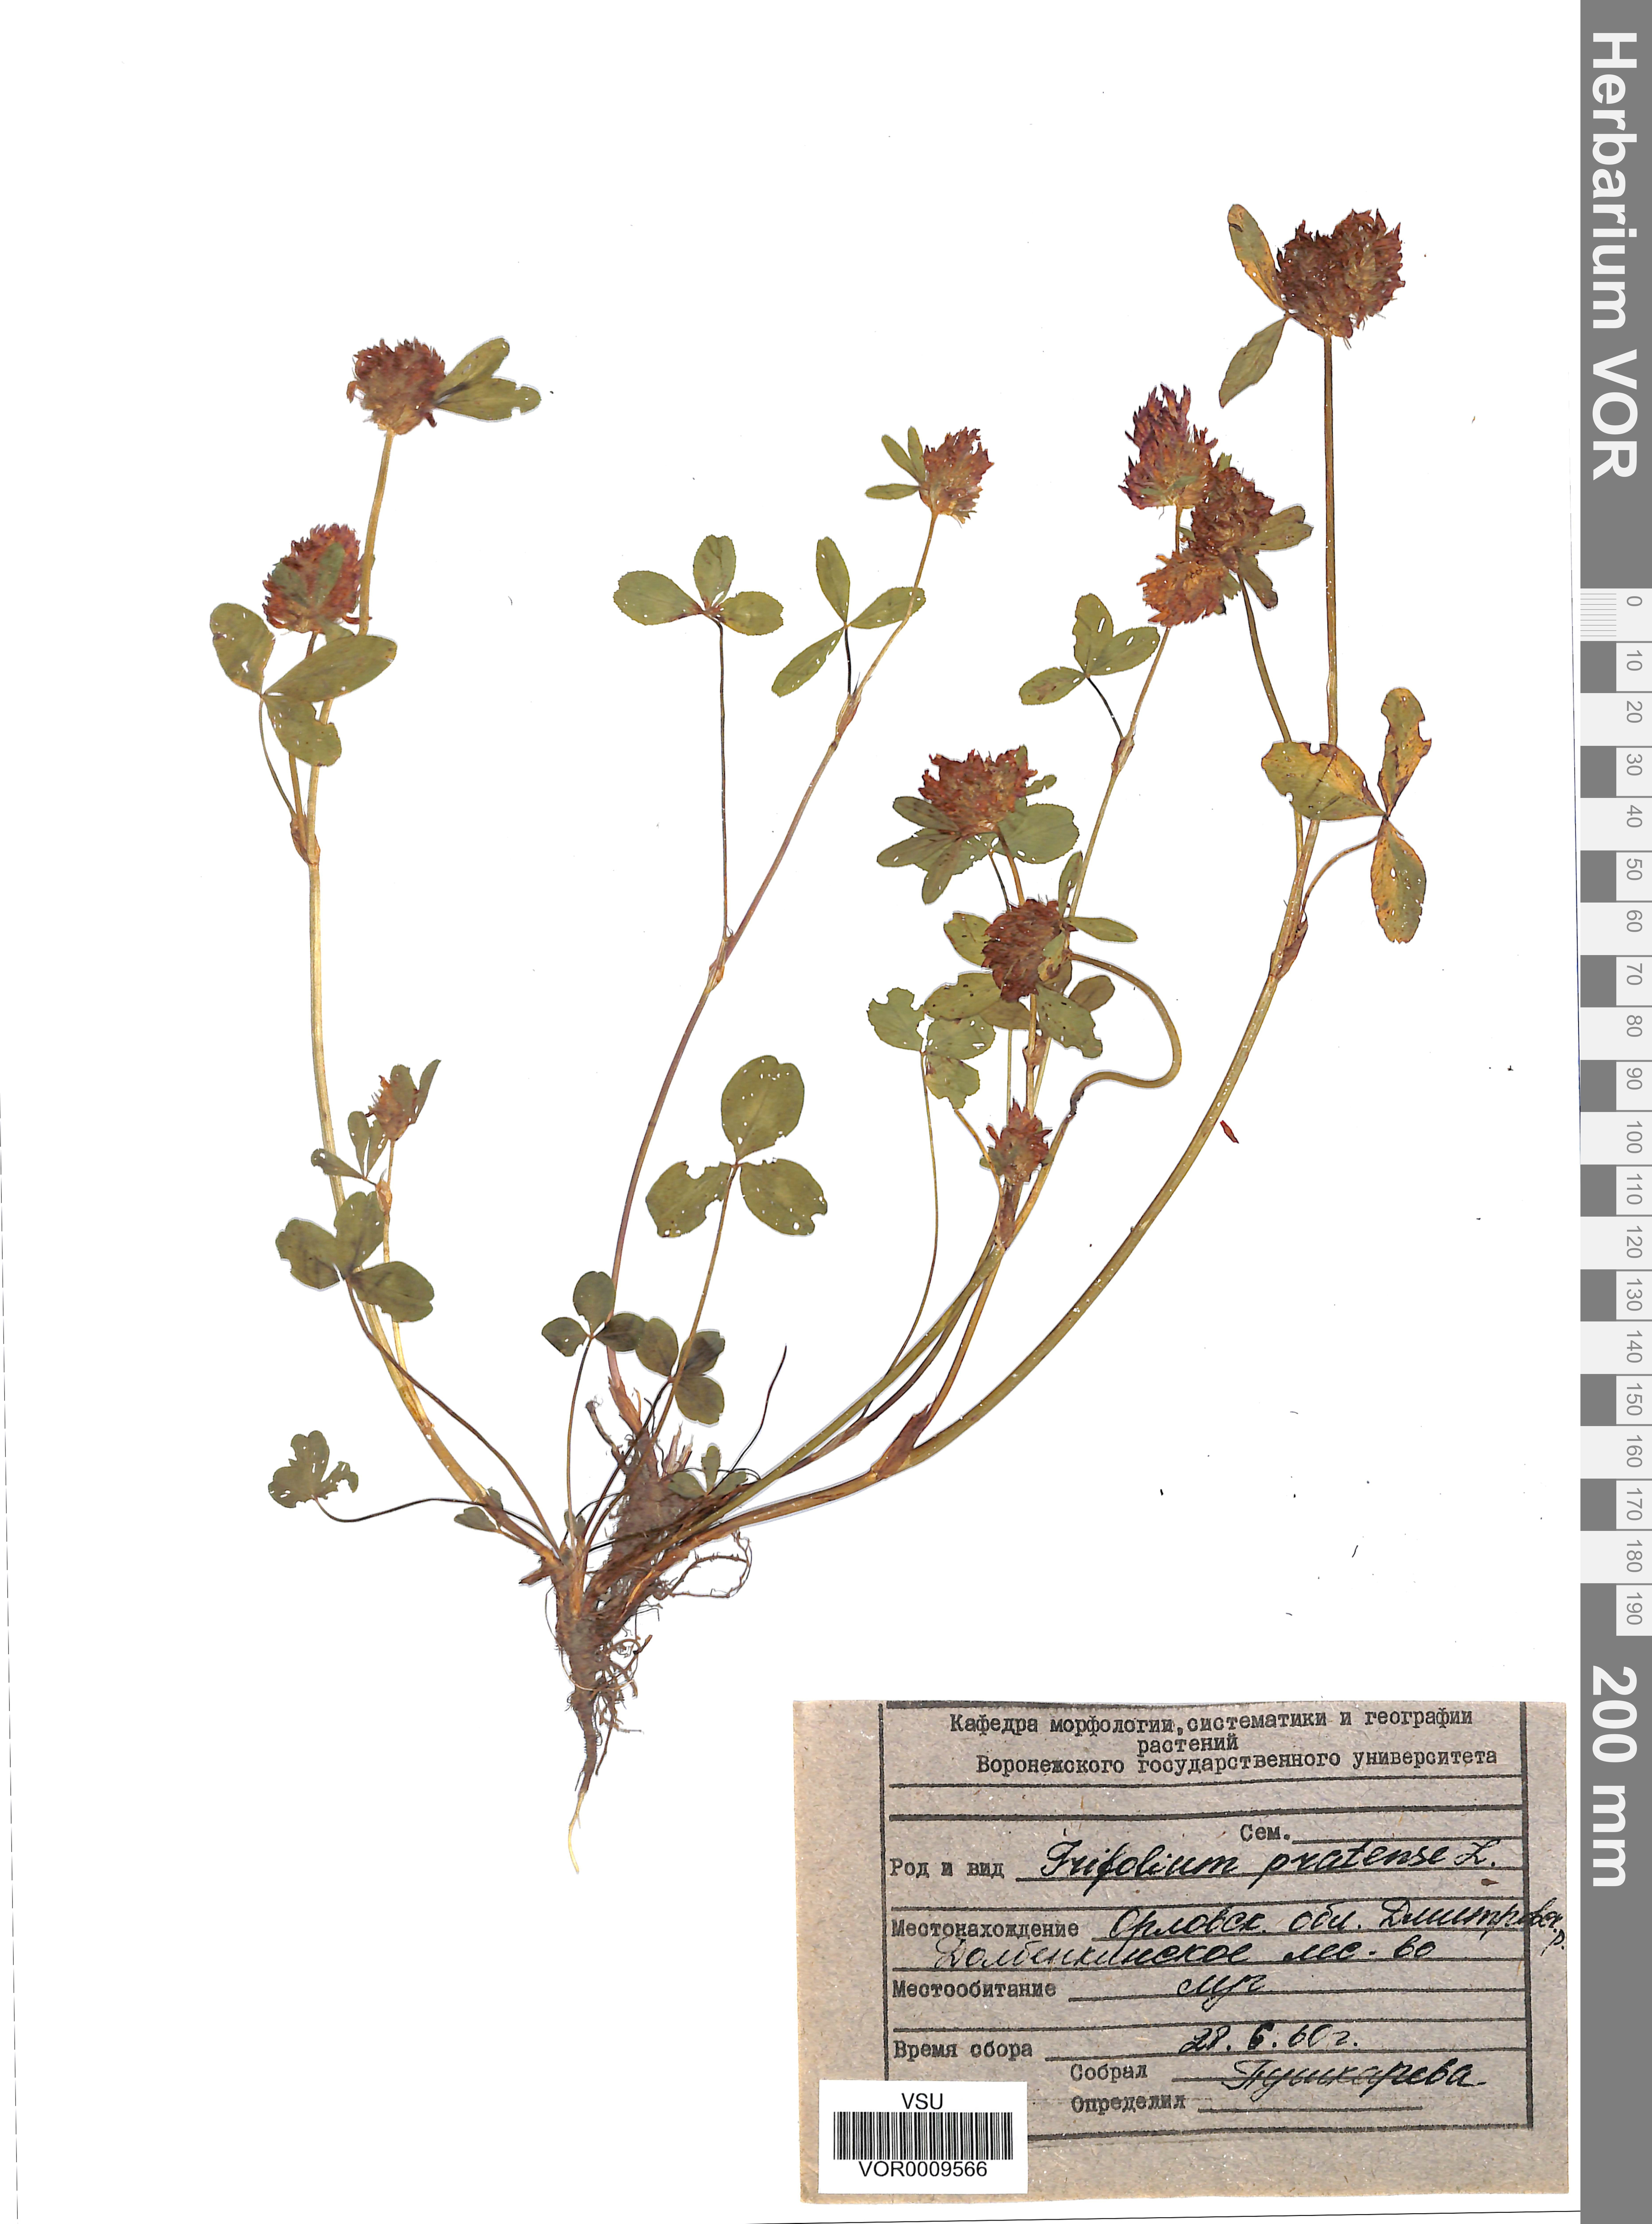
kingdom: Plantae
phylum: Tracheophyta
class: Magnoliopsida
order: Fabales
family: Fabaceae
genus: Trifolium
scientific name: Trifolium pratense
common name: Red clover
